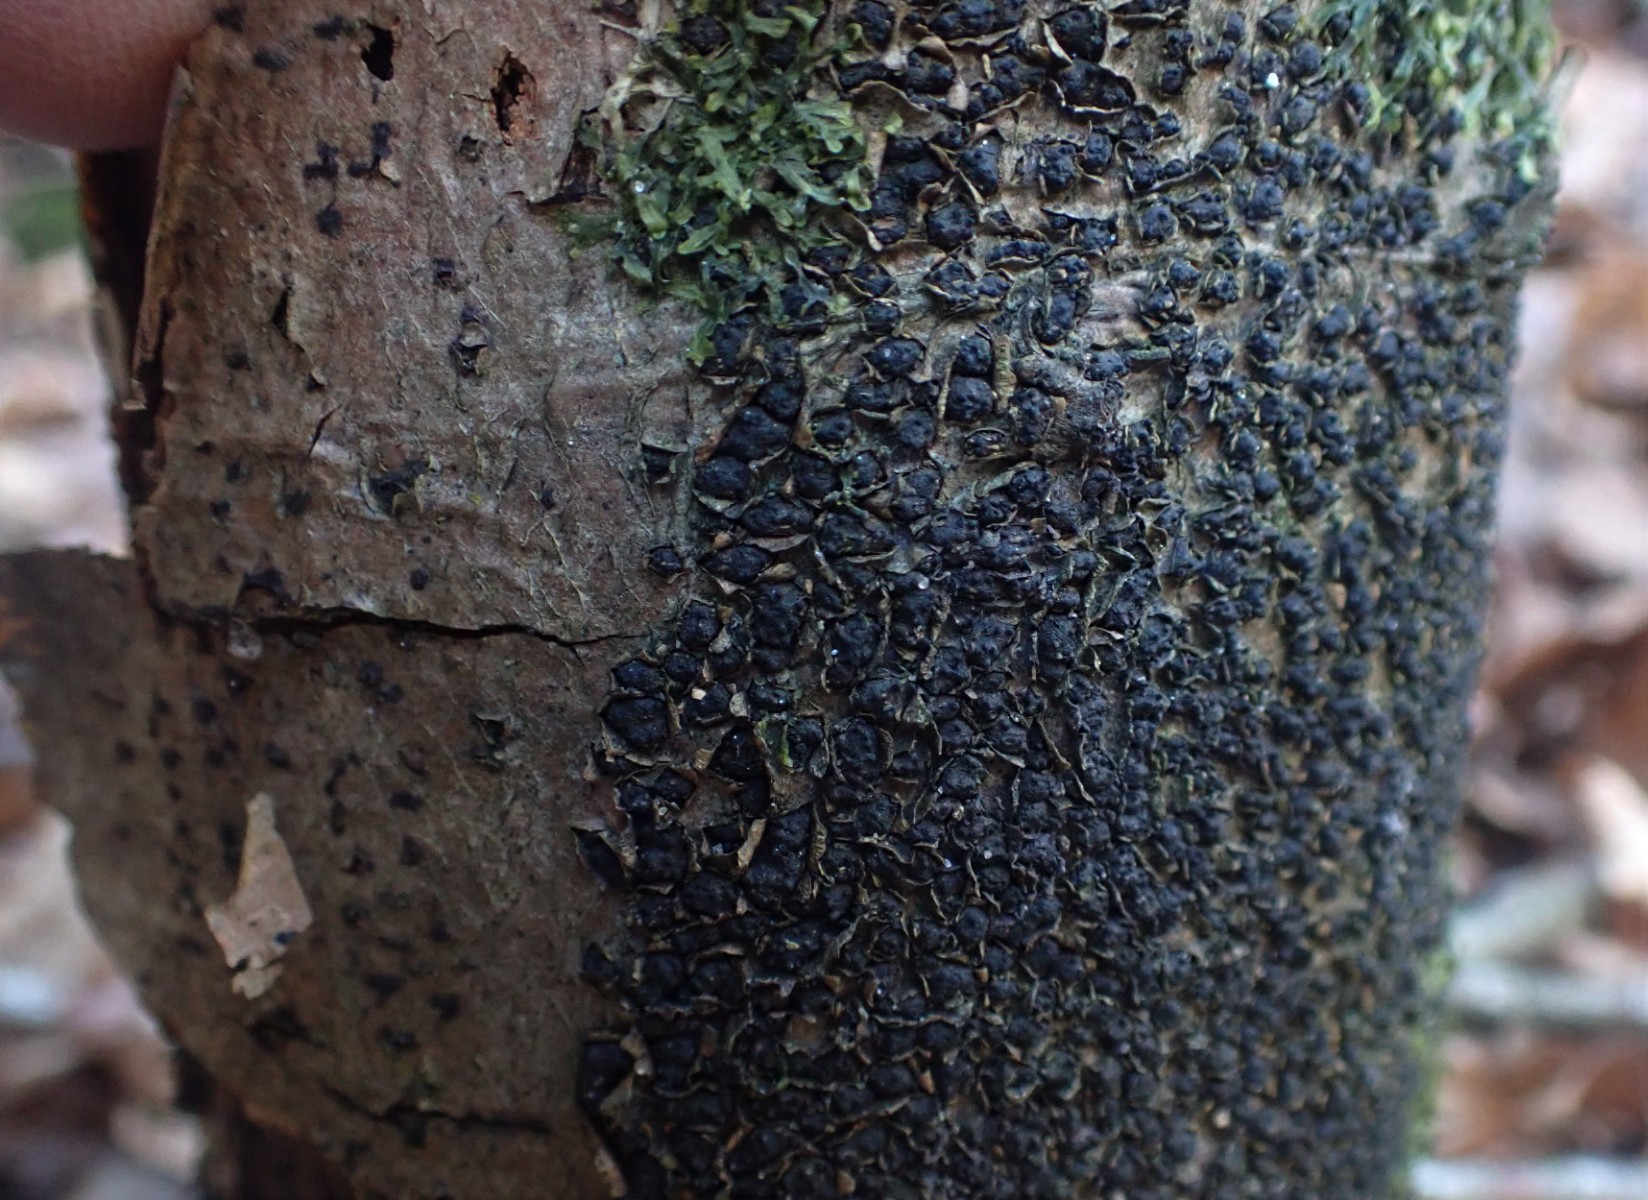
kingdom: Fungi
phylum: Ascomycota
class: Sordariomycetes
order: Xylariales
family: Melogrammataceae
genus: Melogramma
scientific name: Melogramma spiniferum
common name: bøgefod-kulhals
